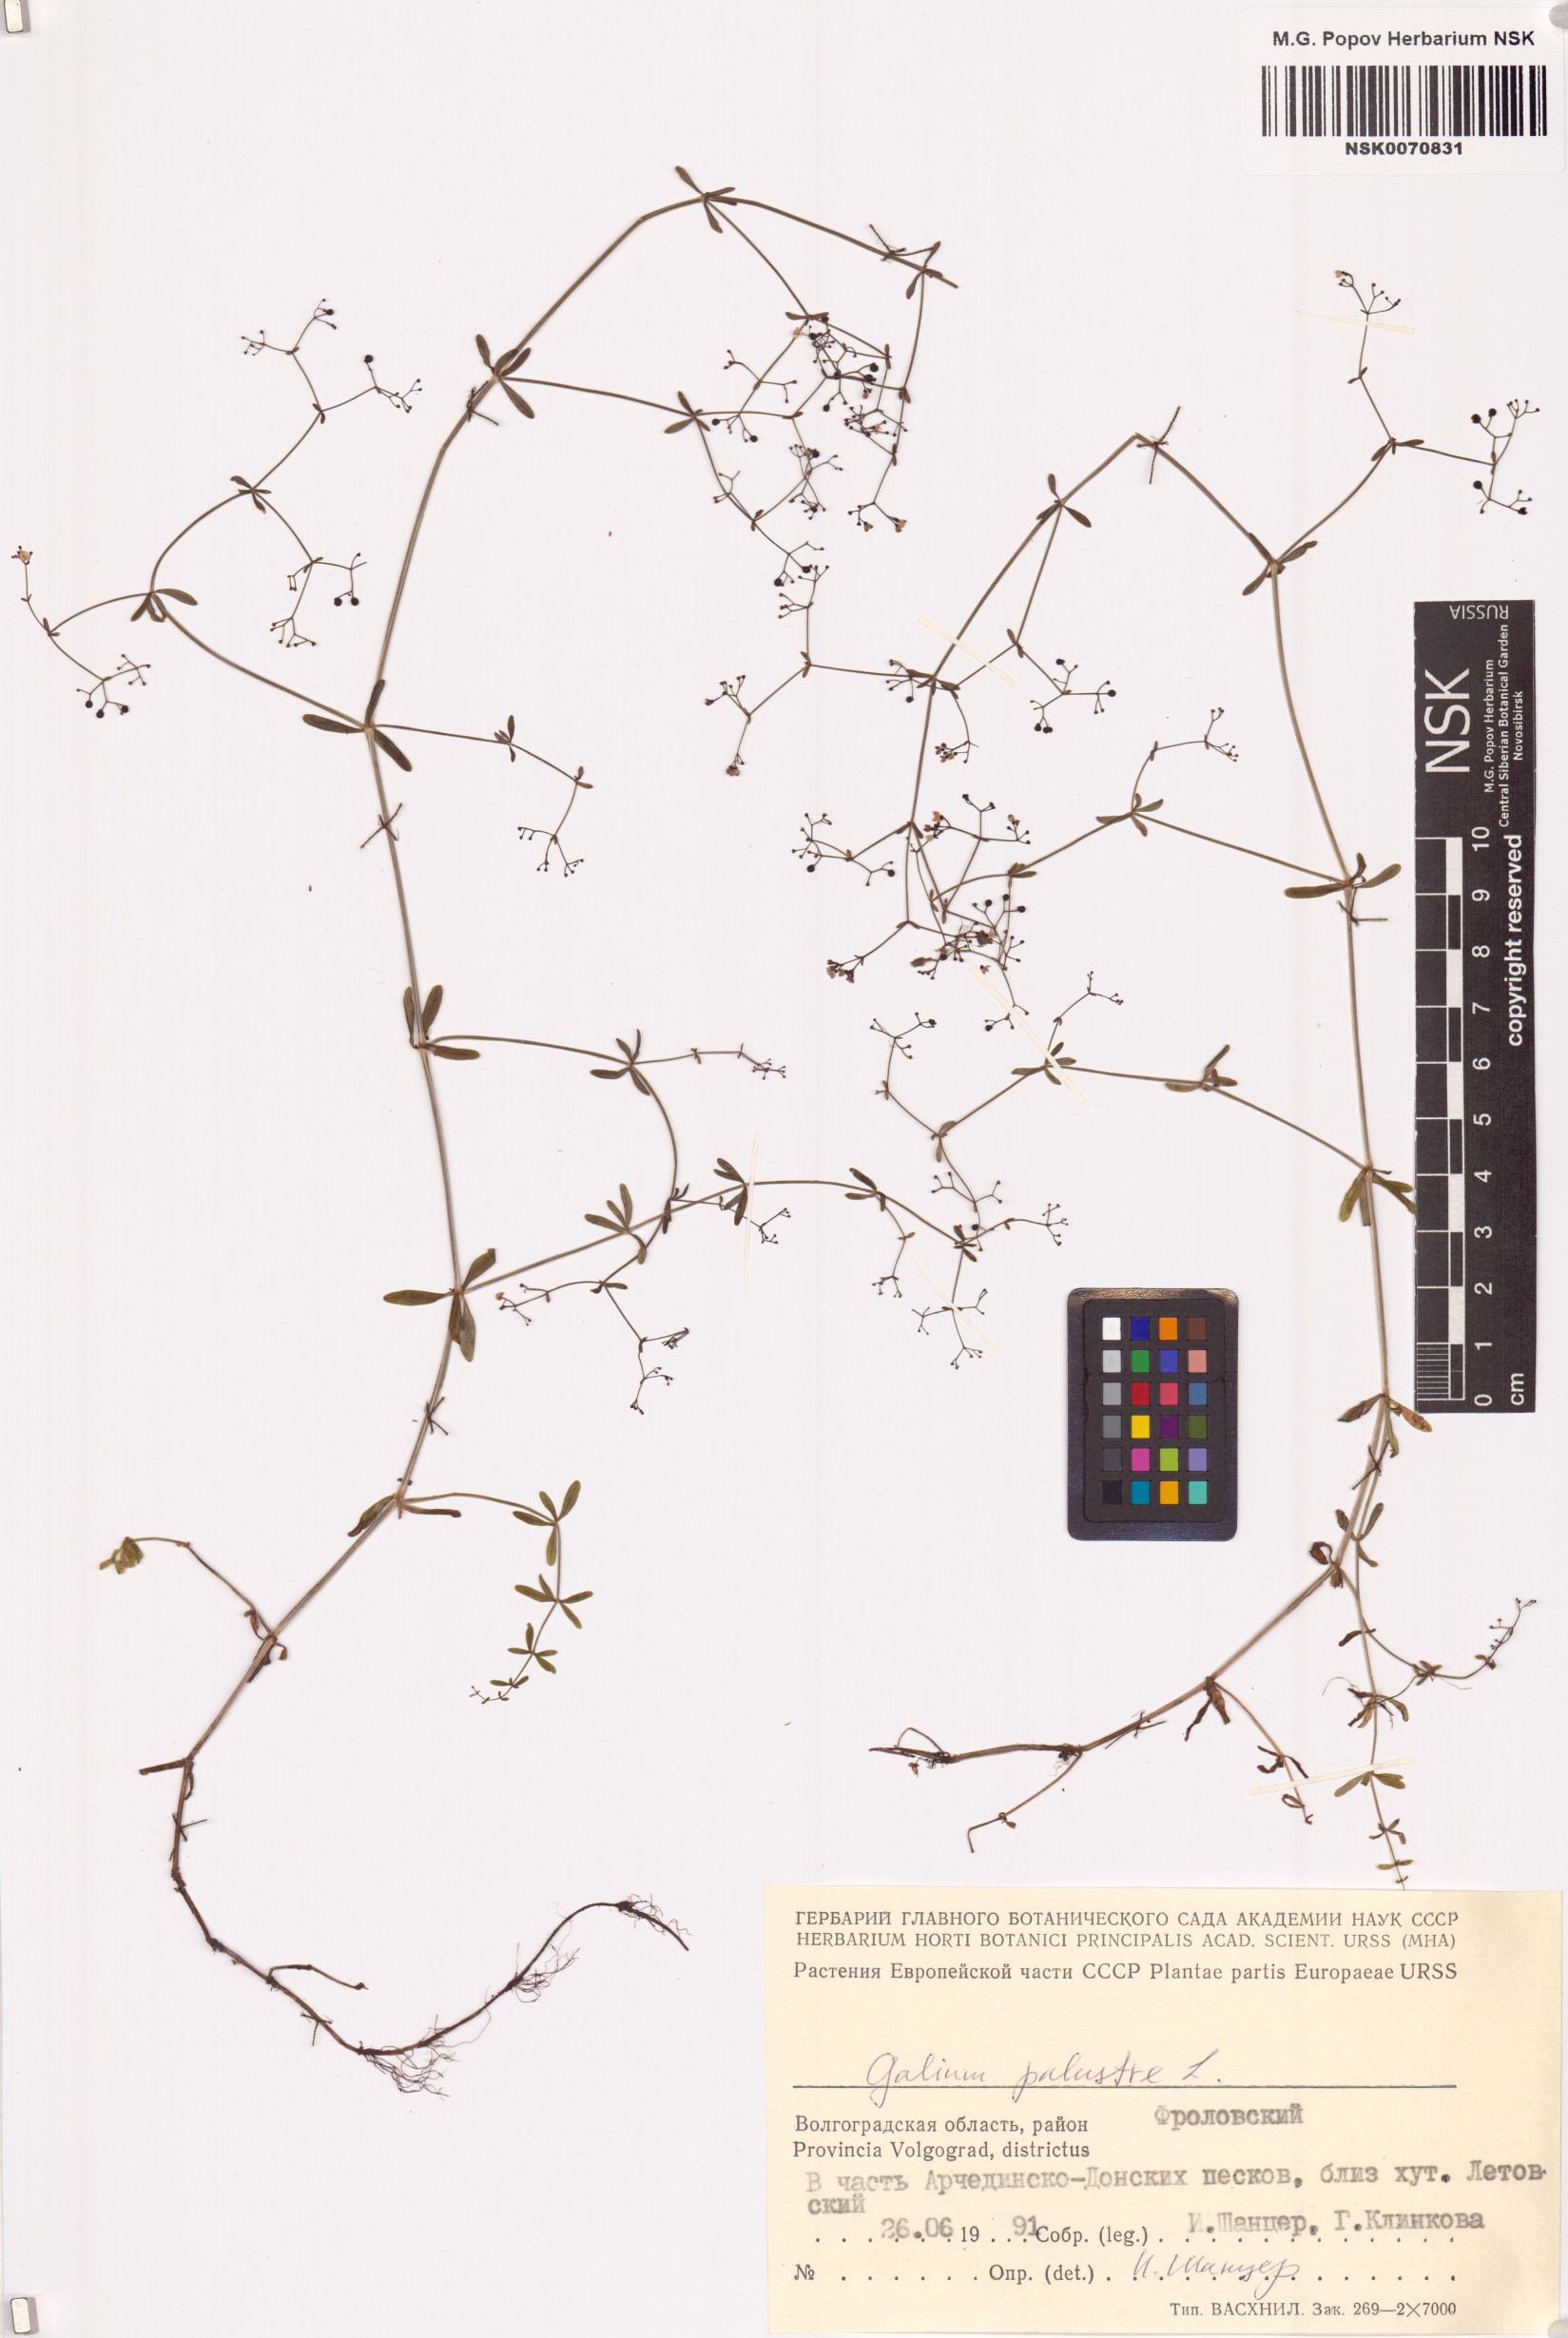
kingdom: Plantae
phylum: Tracheophyta
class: Magnoliopsida
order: Gentianales
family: Rubiaceae
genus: Galium
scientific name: Galium palustre
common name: Common marsh-bedstraw
